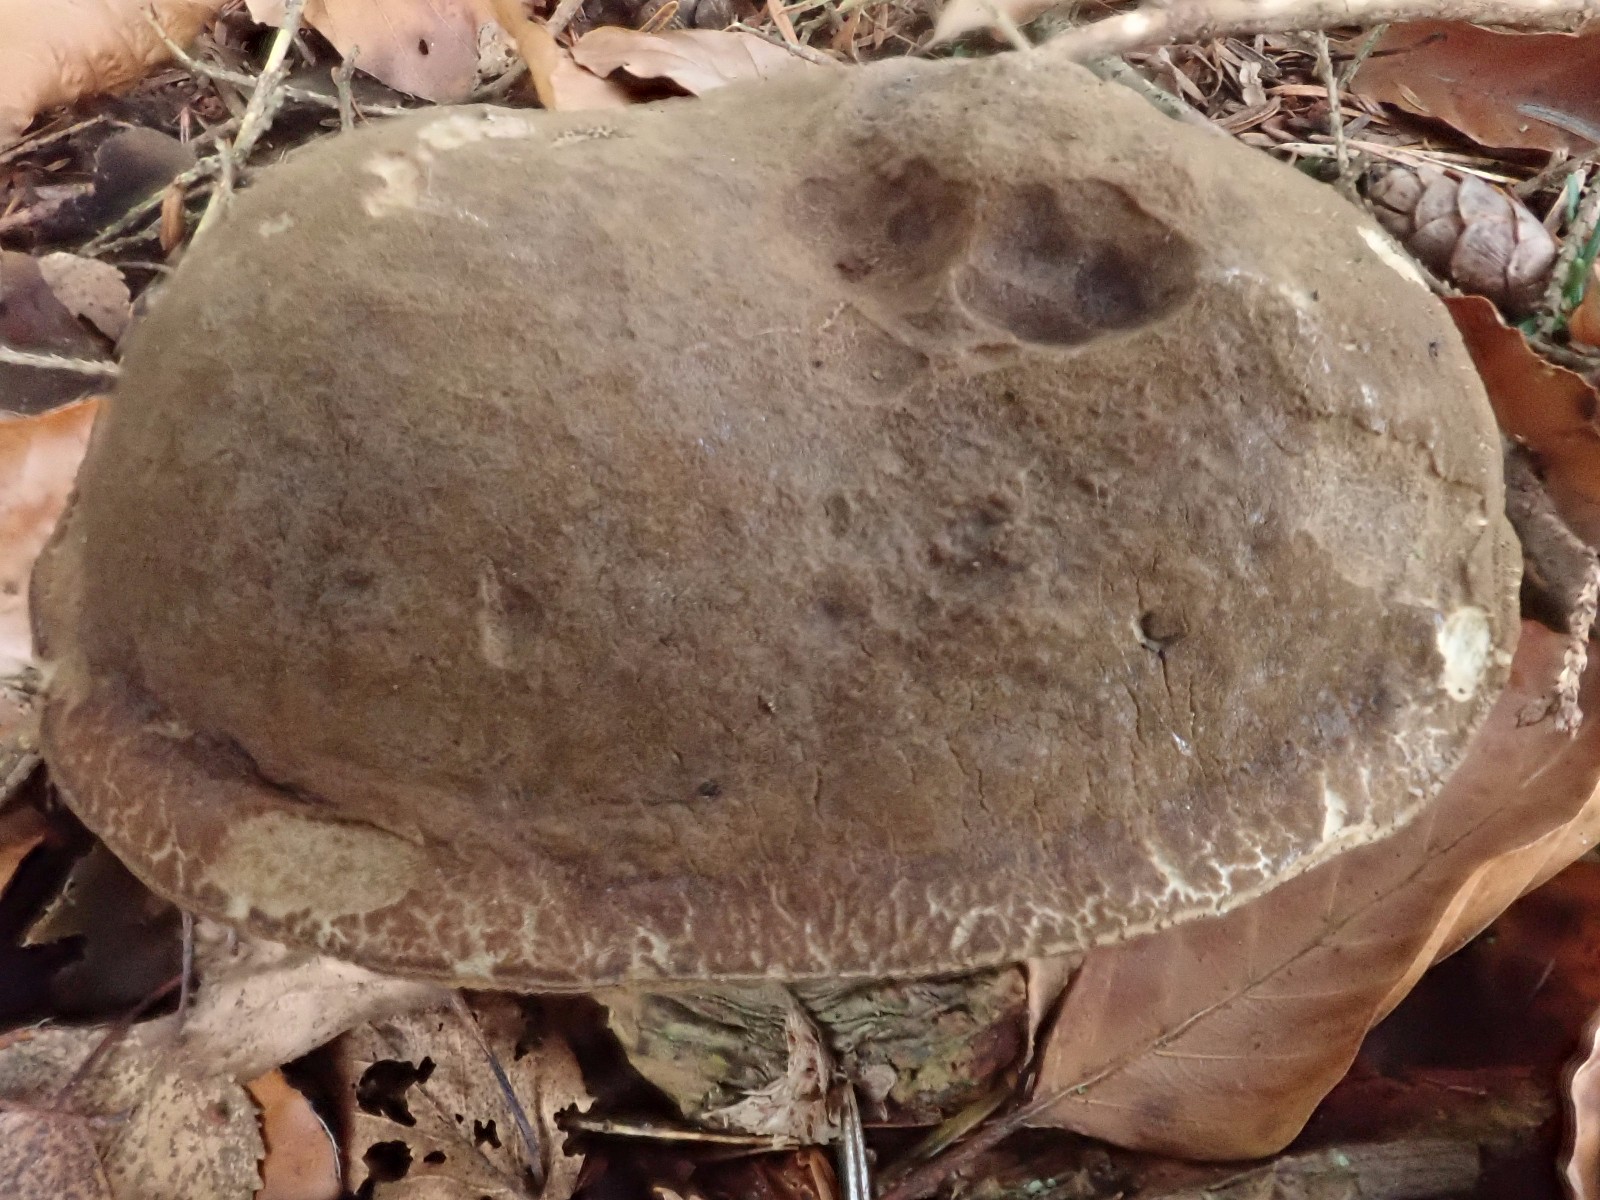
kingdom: Fungi
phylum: Basidiomycota
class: Agaricomycetes
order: Boletales
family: Boletaceae
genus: Xerocomellus
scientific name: Xerocomellus pruinatus
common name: dugget rørhat
